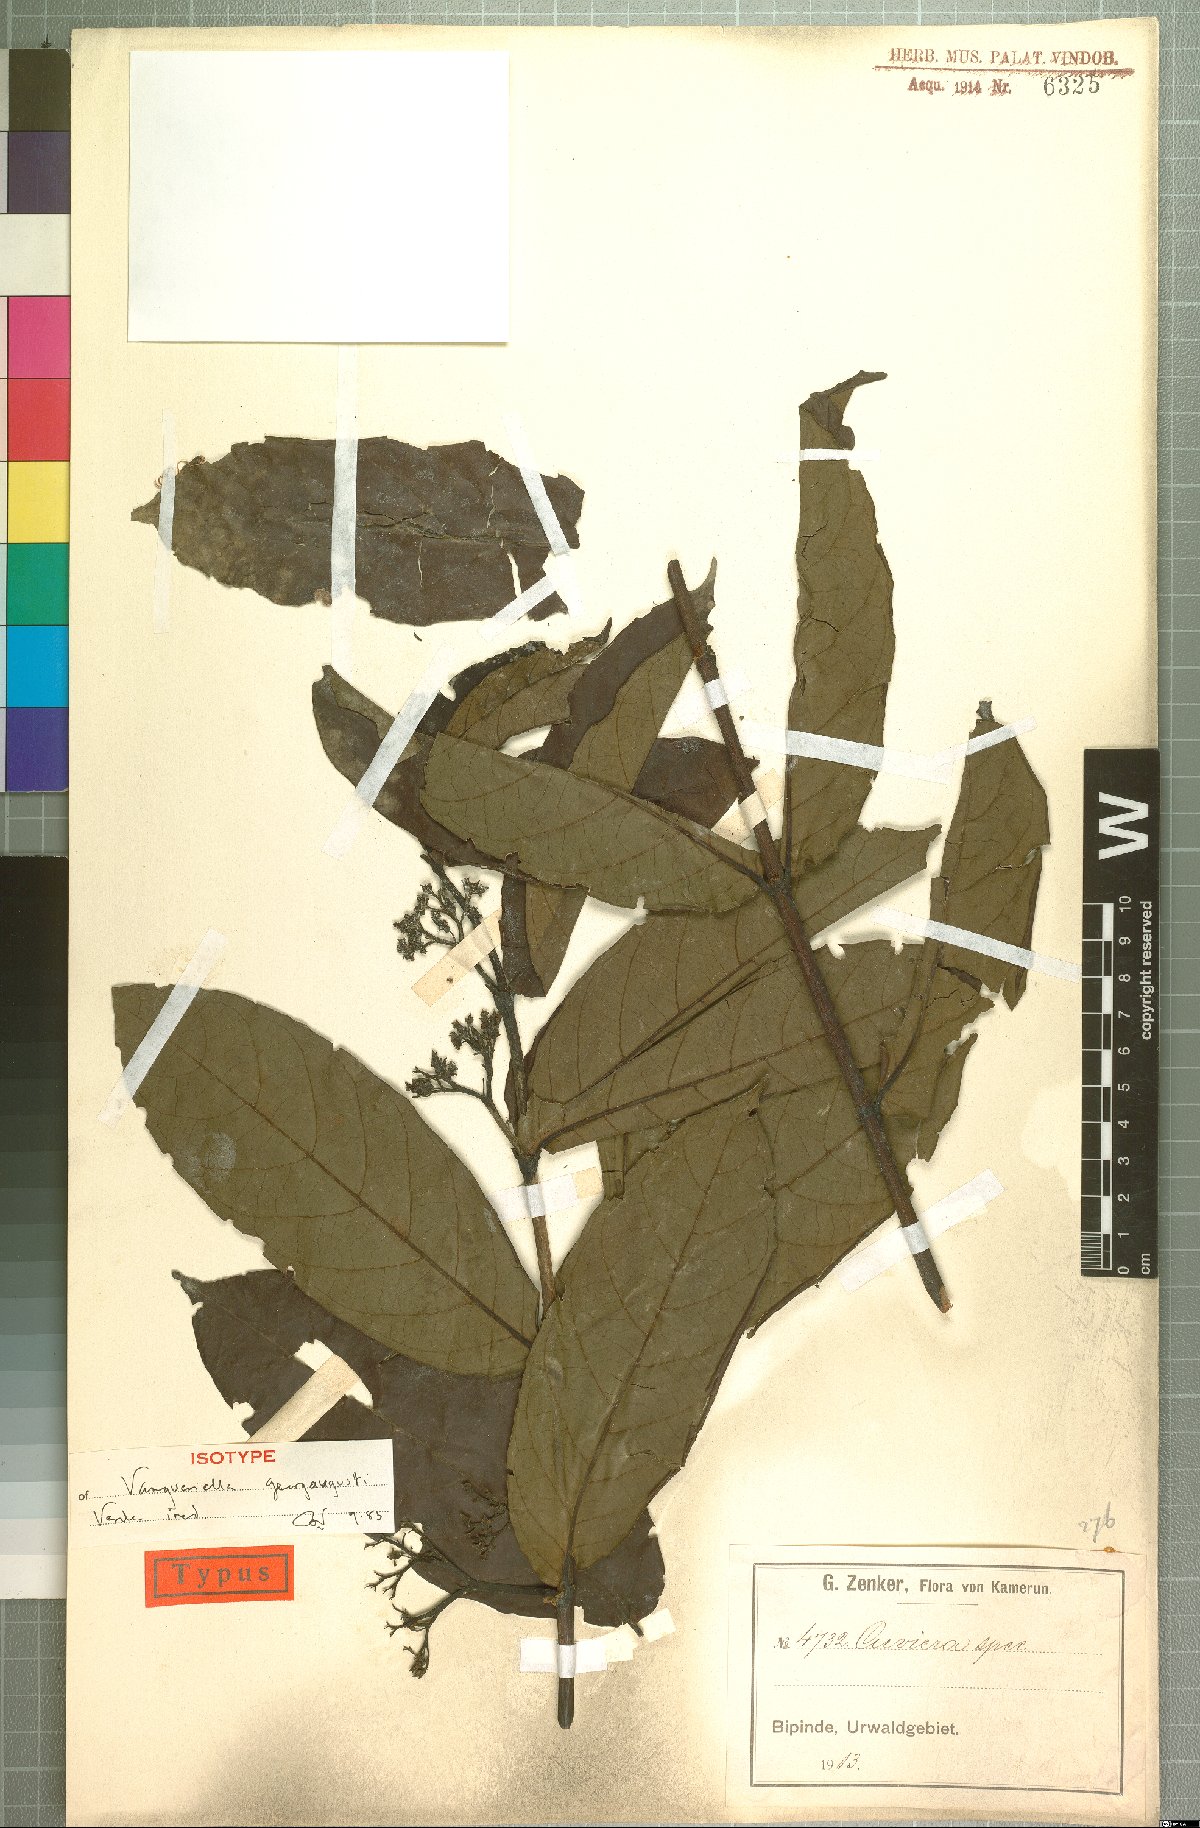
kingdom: Plantae
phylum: Tracheophyta
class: Magnoliopsida
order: Gentianales
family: Rubiaceae
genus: Vangueriella
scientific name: Vangueriella
